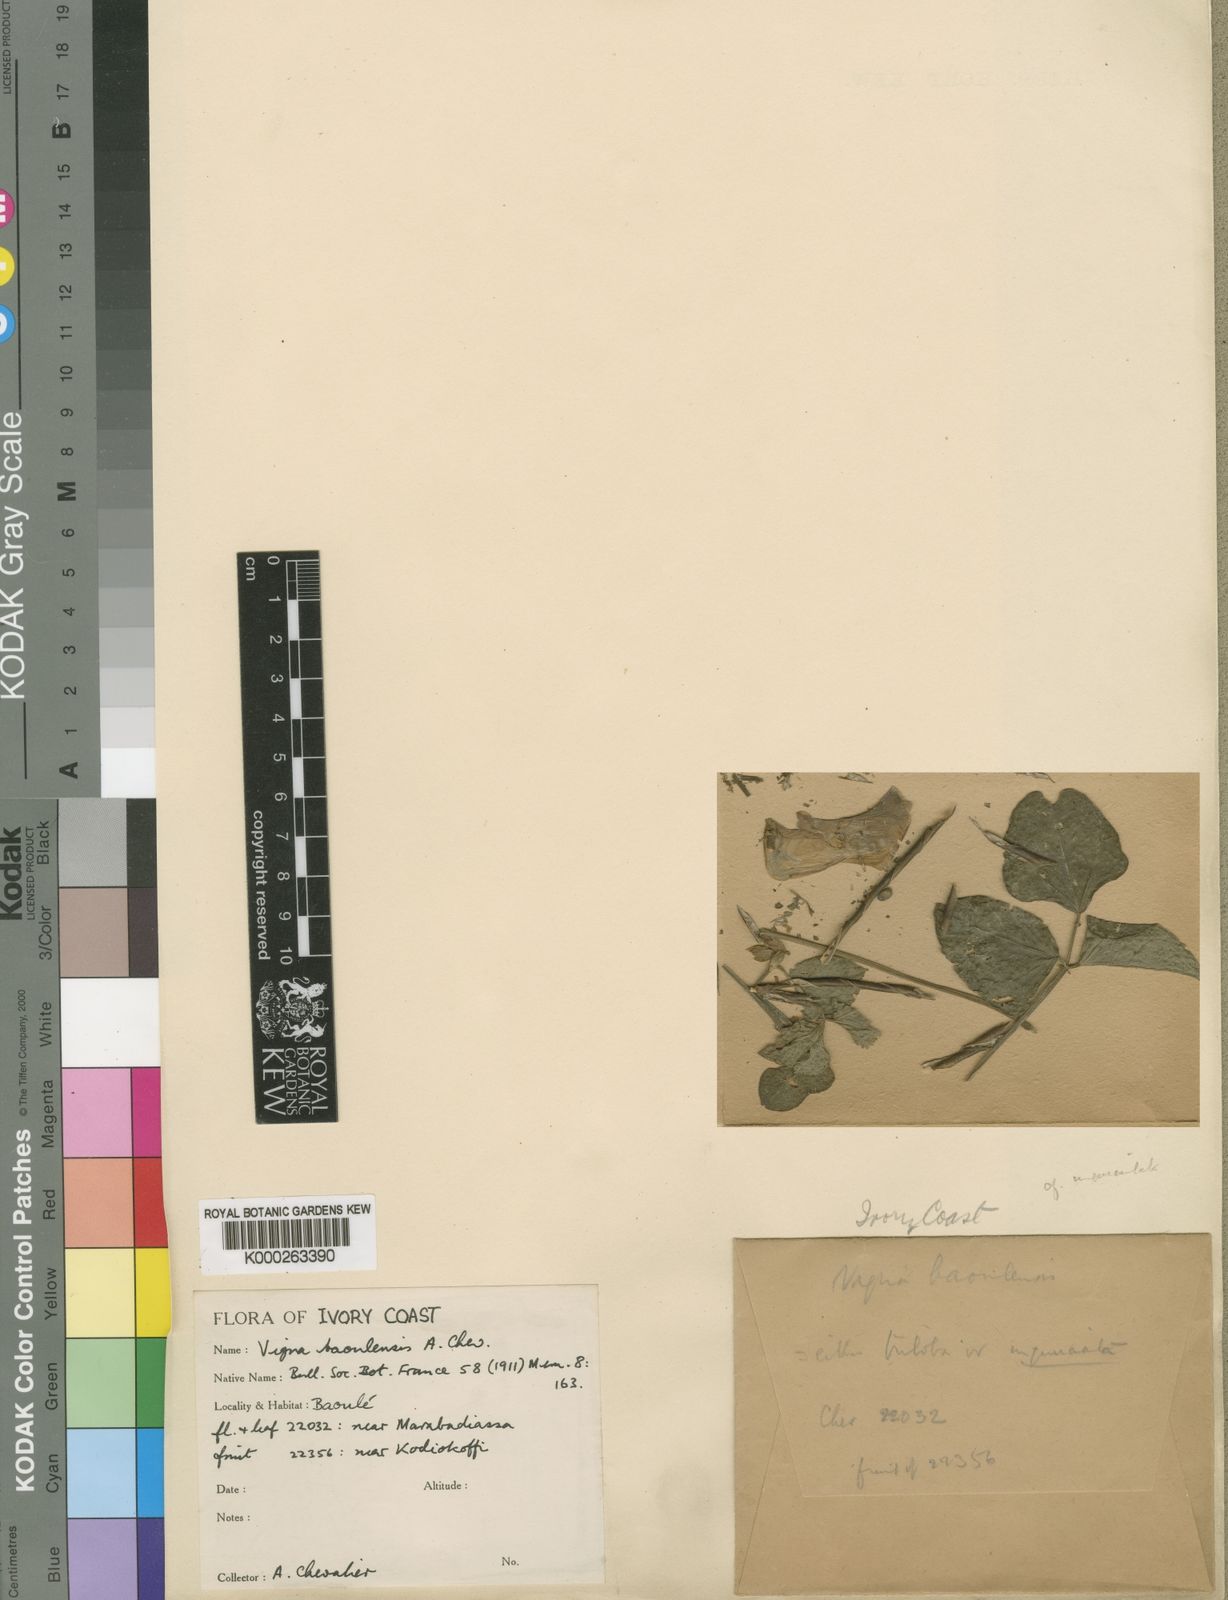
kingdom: Plantae
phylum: Tracheophyta
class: Magnoliopsida
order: Fabales
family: Fabaceae
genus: Vigna
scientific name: Vigna unguiculata
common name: Cowpea
